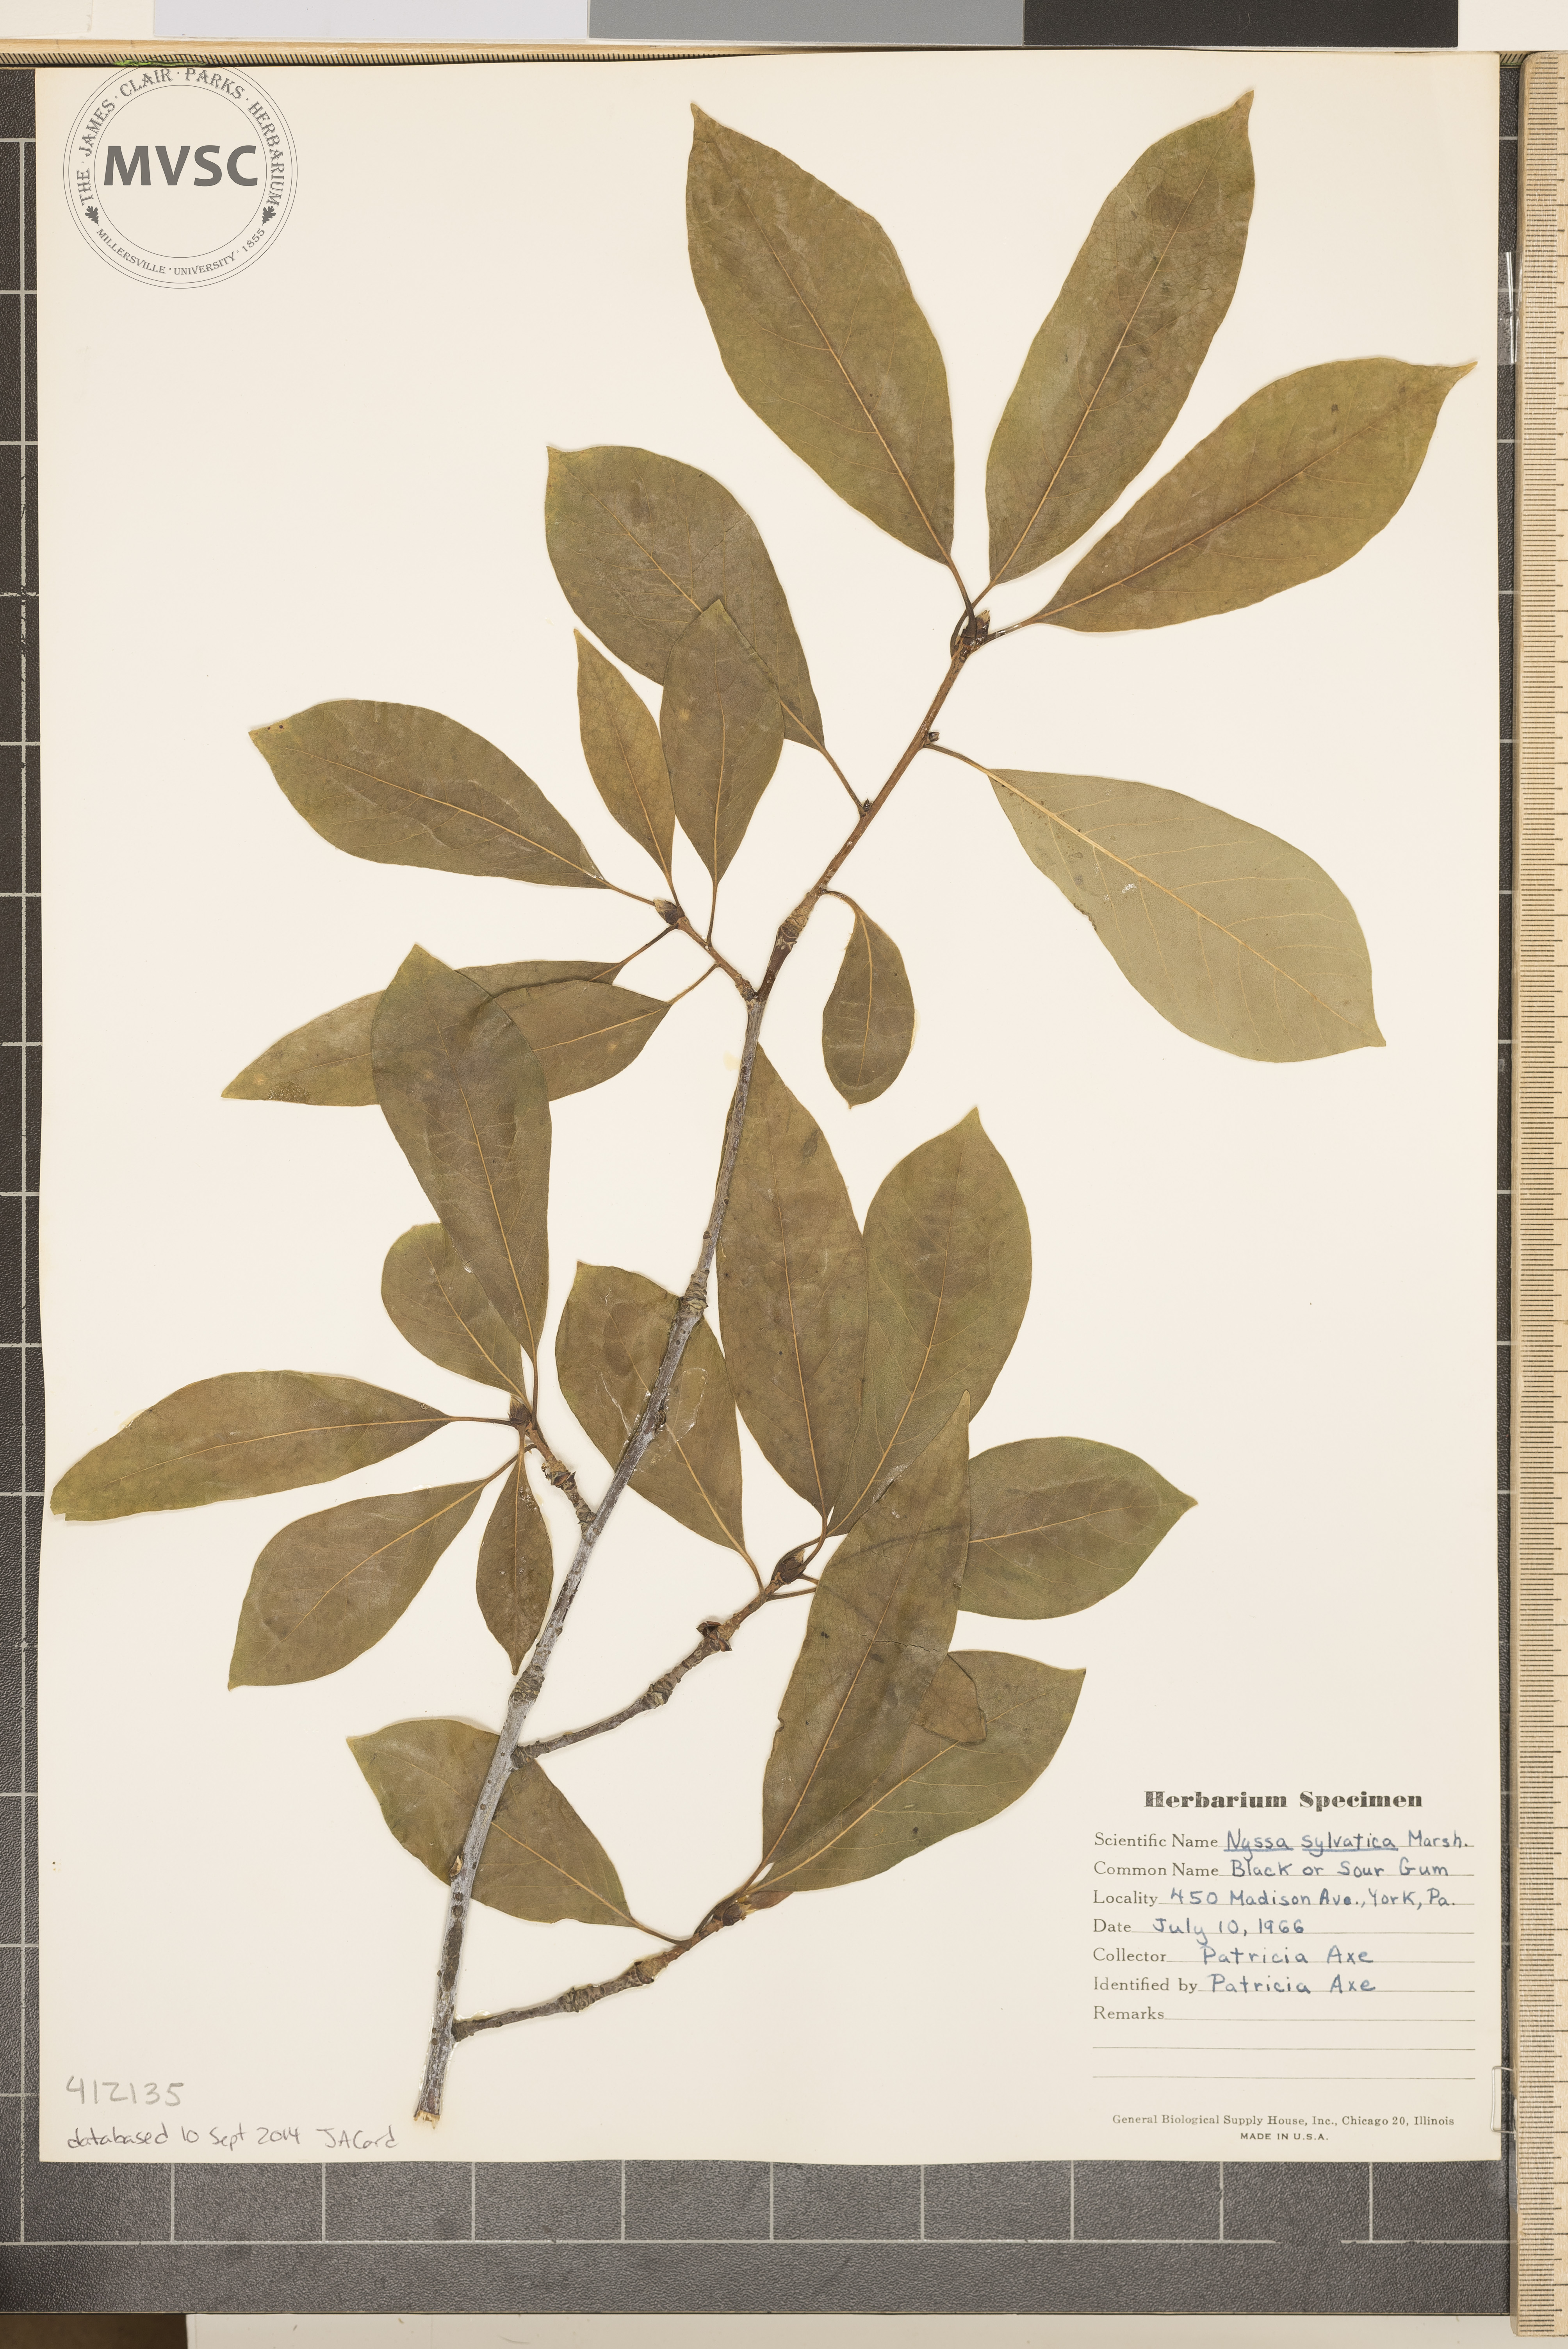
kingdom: Plantae
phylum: Tracheophyta
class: Magnoliopsida
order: Cornales
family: Nyssaceae
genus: Nyssa
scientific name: Nyssa sylvatica
